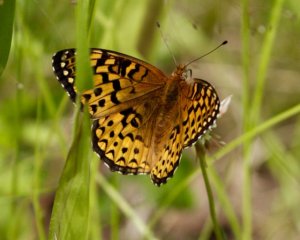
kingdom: Animalia
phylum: Arthropoda
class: Insecta
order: Lepidoptera
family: Nymphalidae
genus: Speyeria
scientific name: Speyeria atlantis
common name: Atlantis Fritillary
